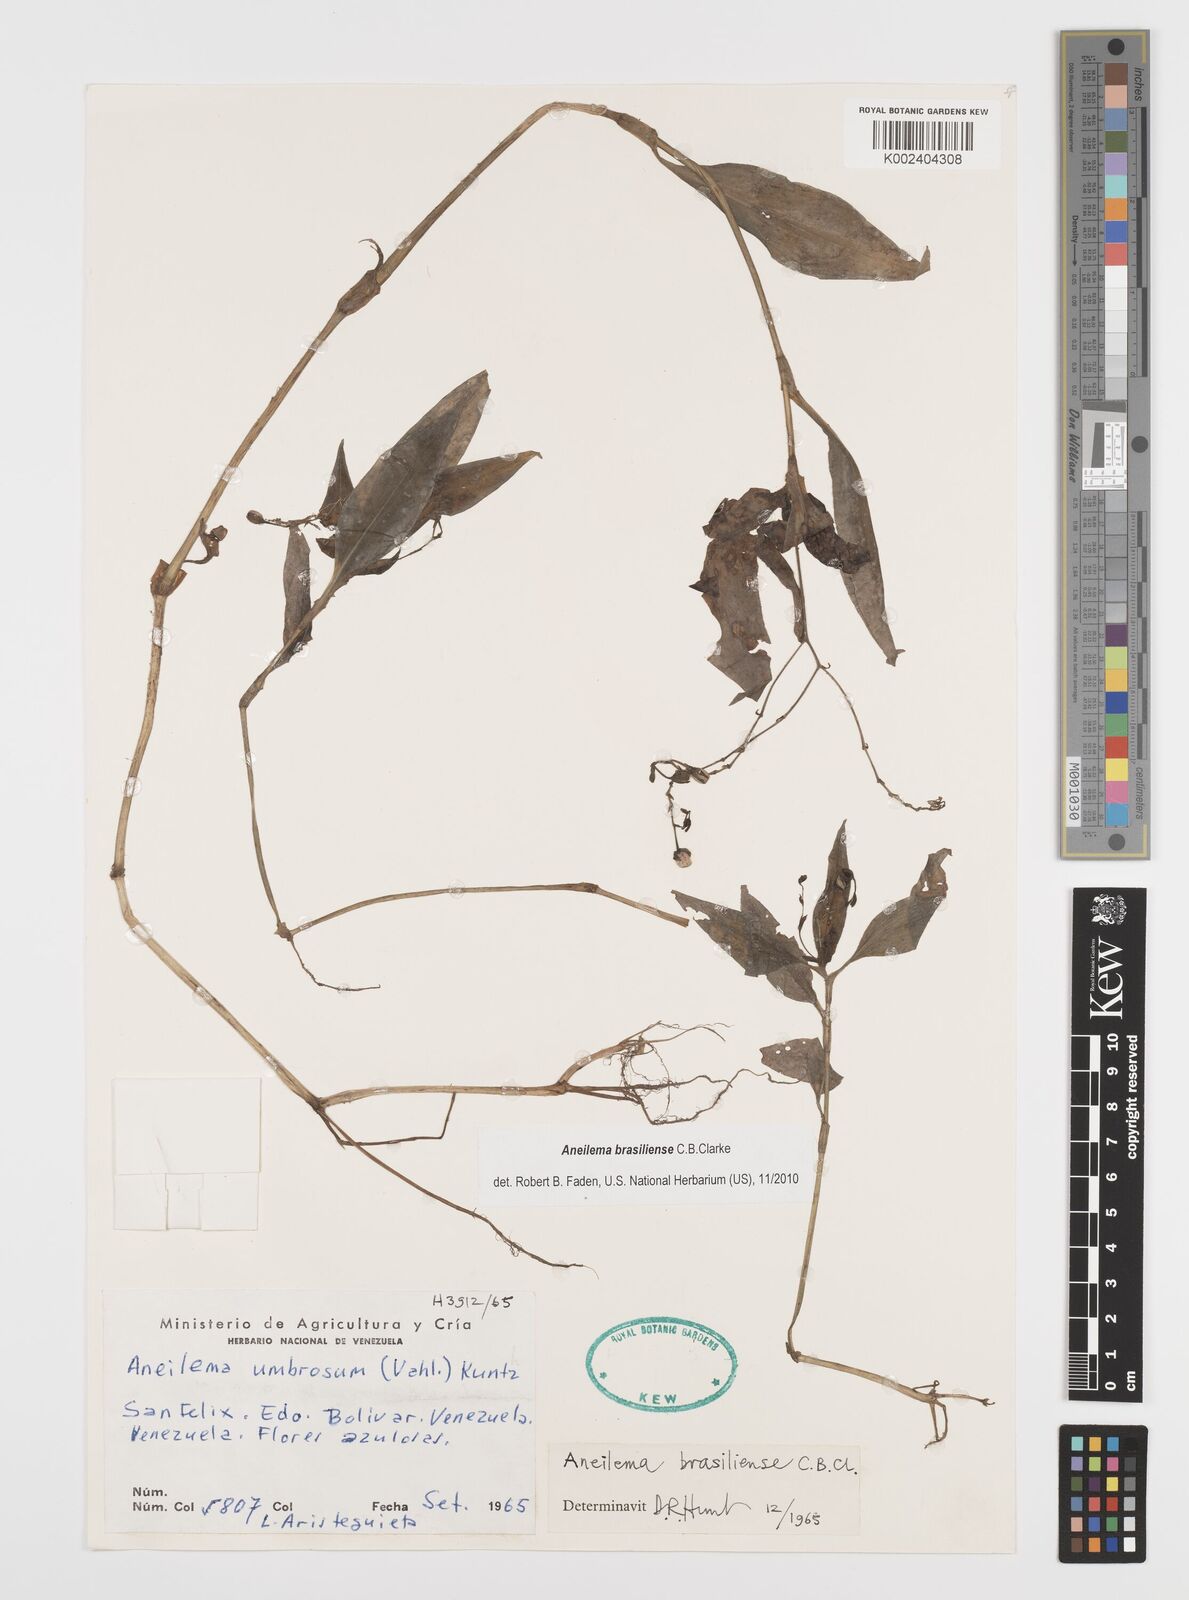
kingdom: Plantae
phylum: Tracheophyta
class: Liliopsida
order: Commelinales
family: Commelinaceae
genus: Aneilema
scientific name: Aneilema brasiliense
